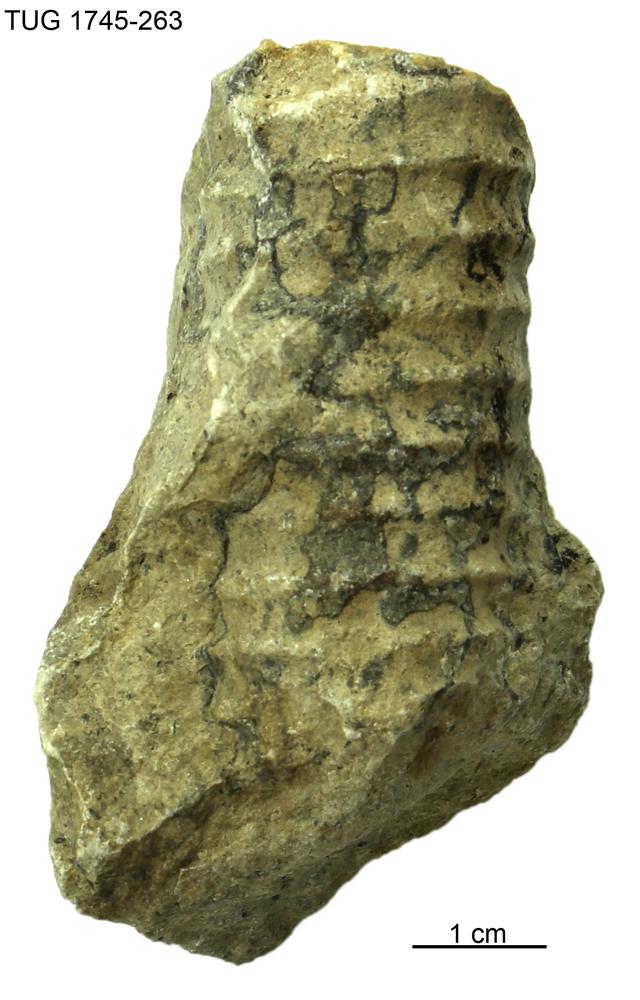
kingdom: Animalia
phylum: Mollusca
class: Cephalopoda
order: Orthocerida
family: Dawsonoceratidae
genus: Palaeodawsonocerina
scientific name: Palaeodawsonocerina Spyroceras senckenbergi
